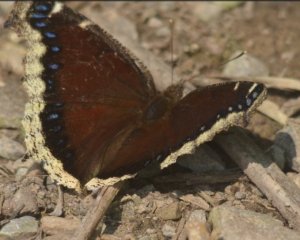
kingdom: Animalia
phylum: Arthropoda
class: Insecta
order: Lepidoptera
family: Nymphalidae
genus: Nymphalis
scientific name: Nymphalis antiopa
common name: Mourning Cloak
